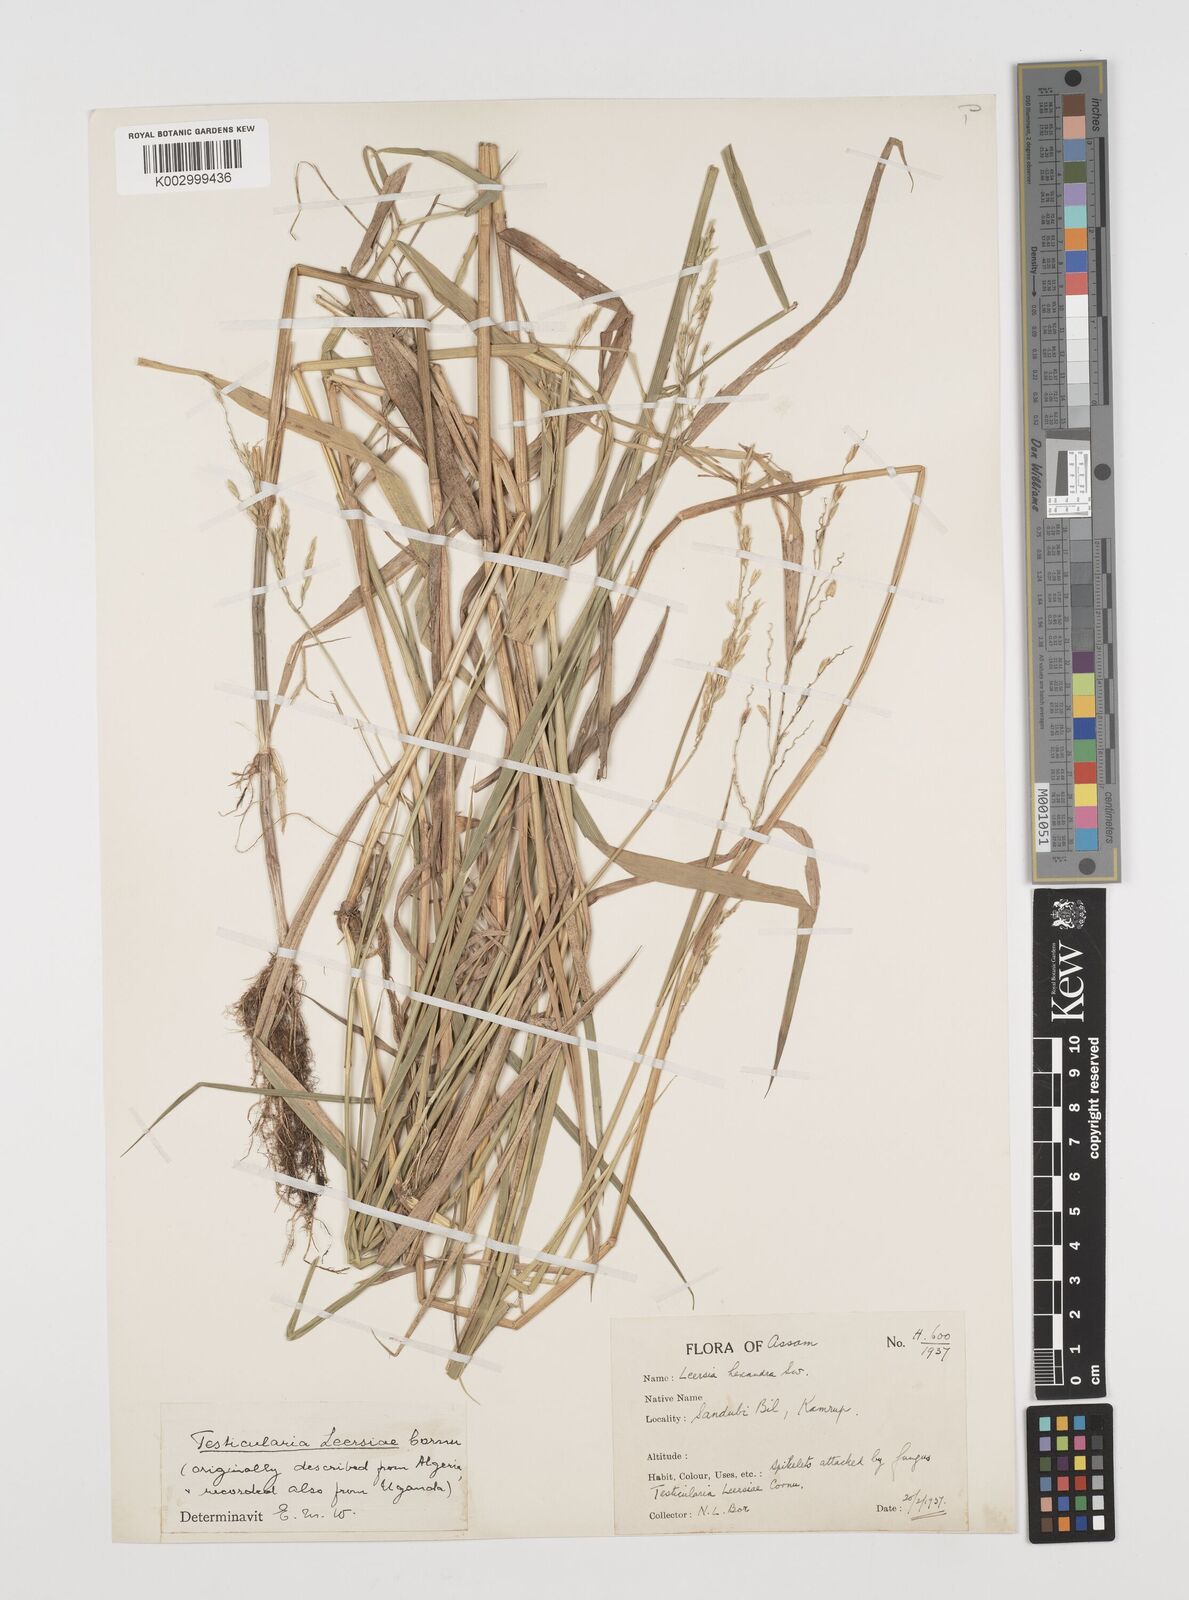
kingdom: Plantae
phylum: Tracheophyta
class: Liliopsida
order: Poales
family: Poaceae
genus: Leersia
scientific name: Leersia hexandra
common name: Southern cut grass
